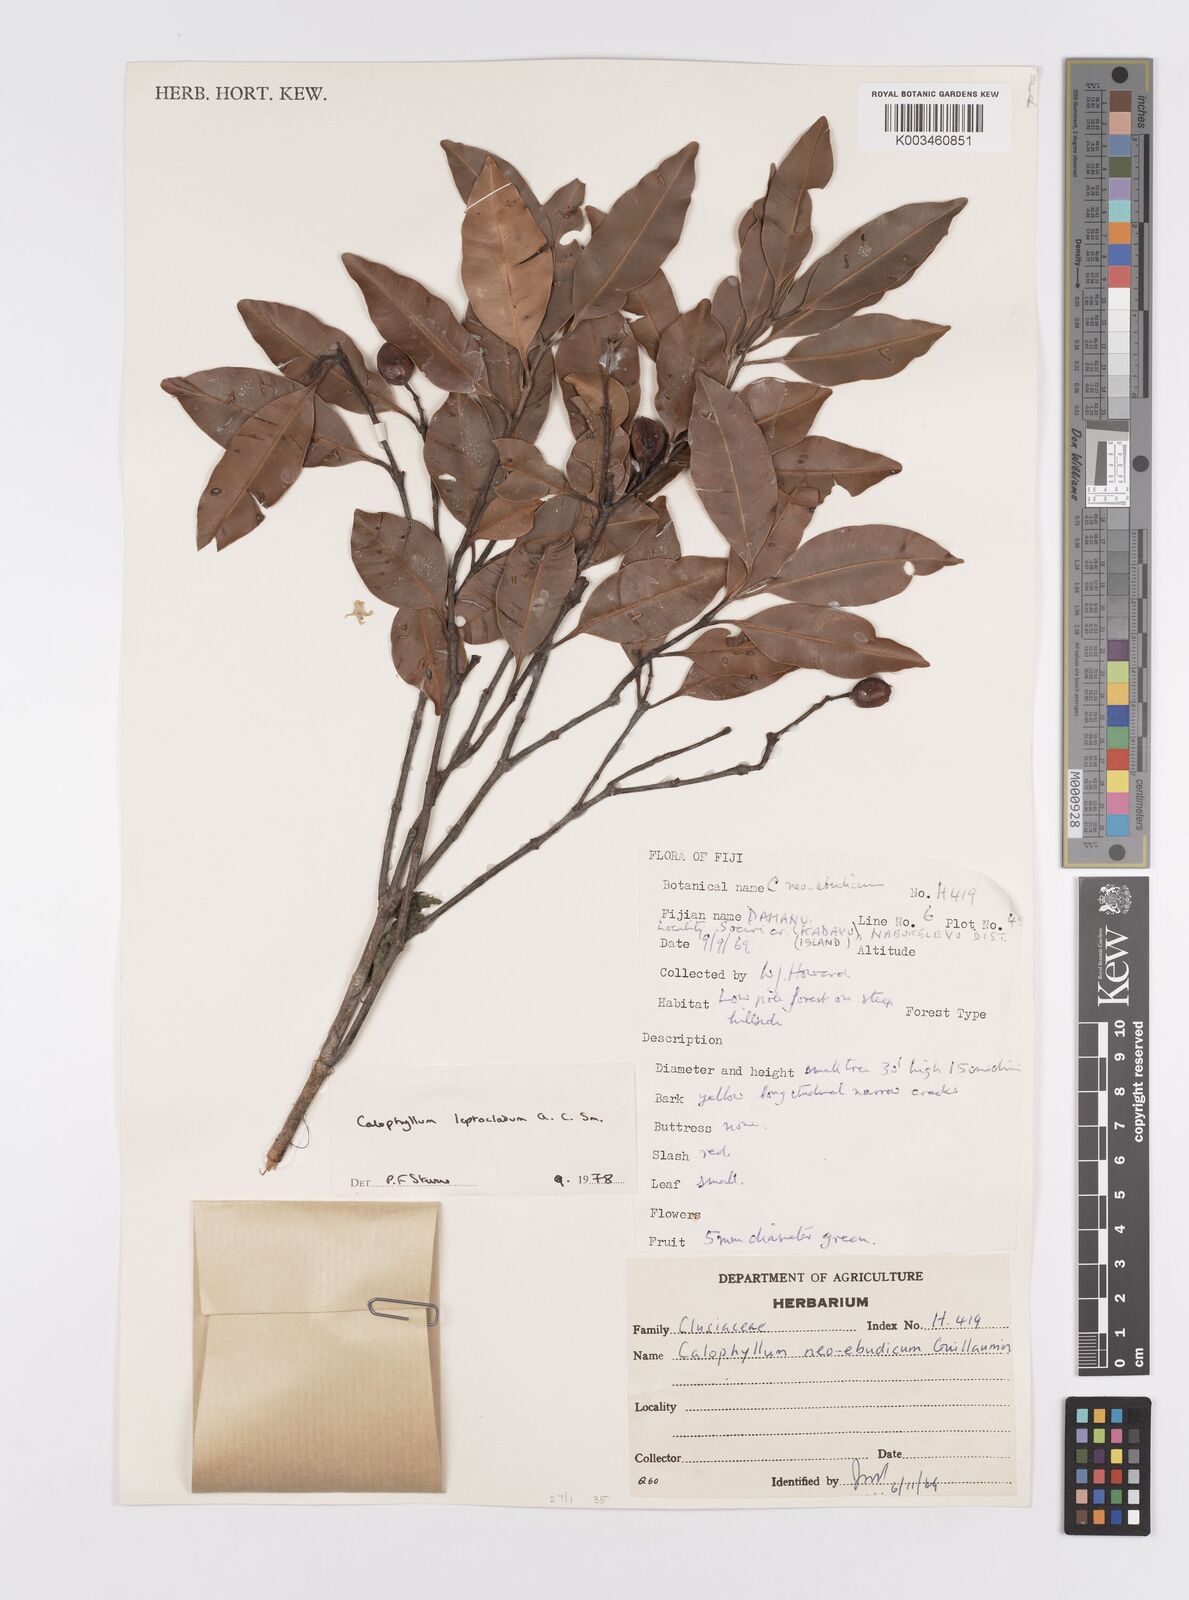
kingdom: Plantae
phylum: Tracheophyta
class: Magnoliopsida
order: Malpighiales
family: Calophyllaceae
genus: Calophyllum
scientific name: Calophyllum leptocladum
